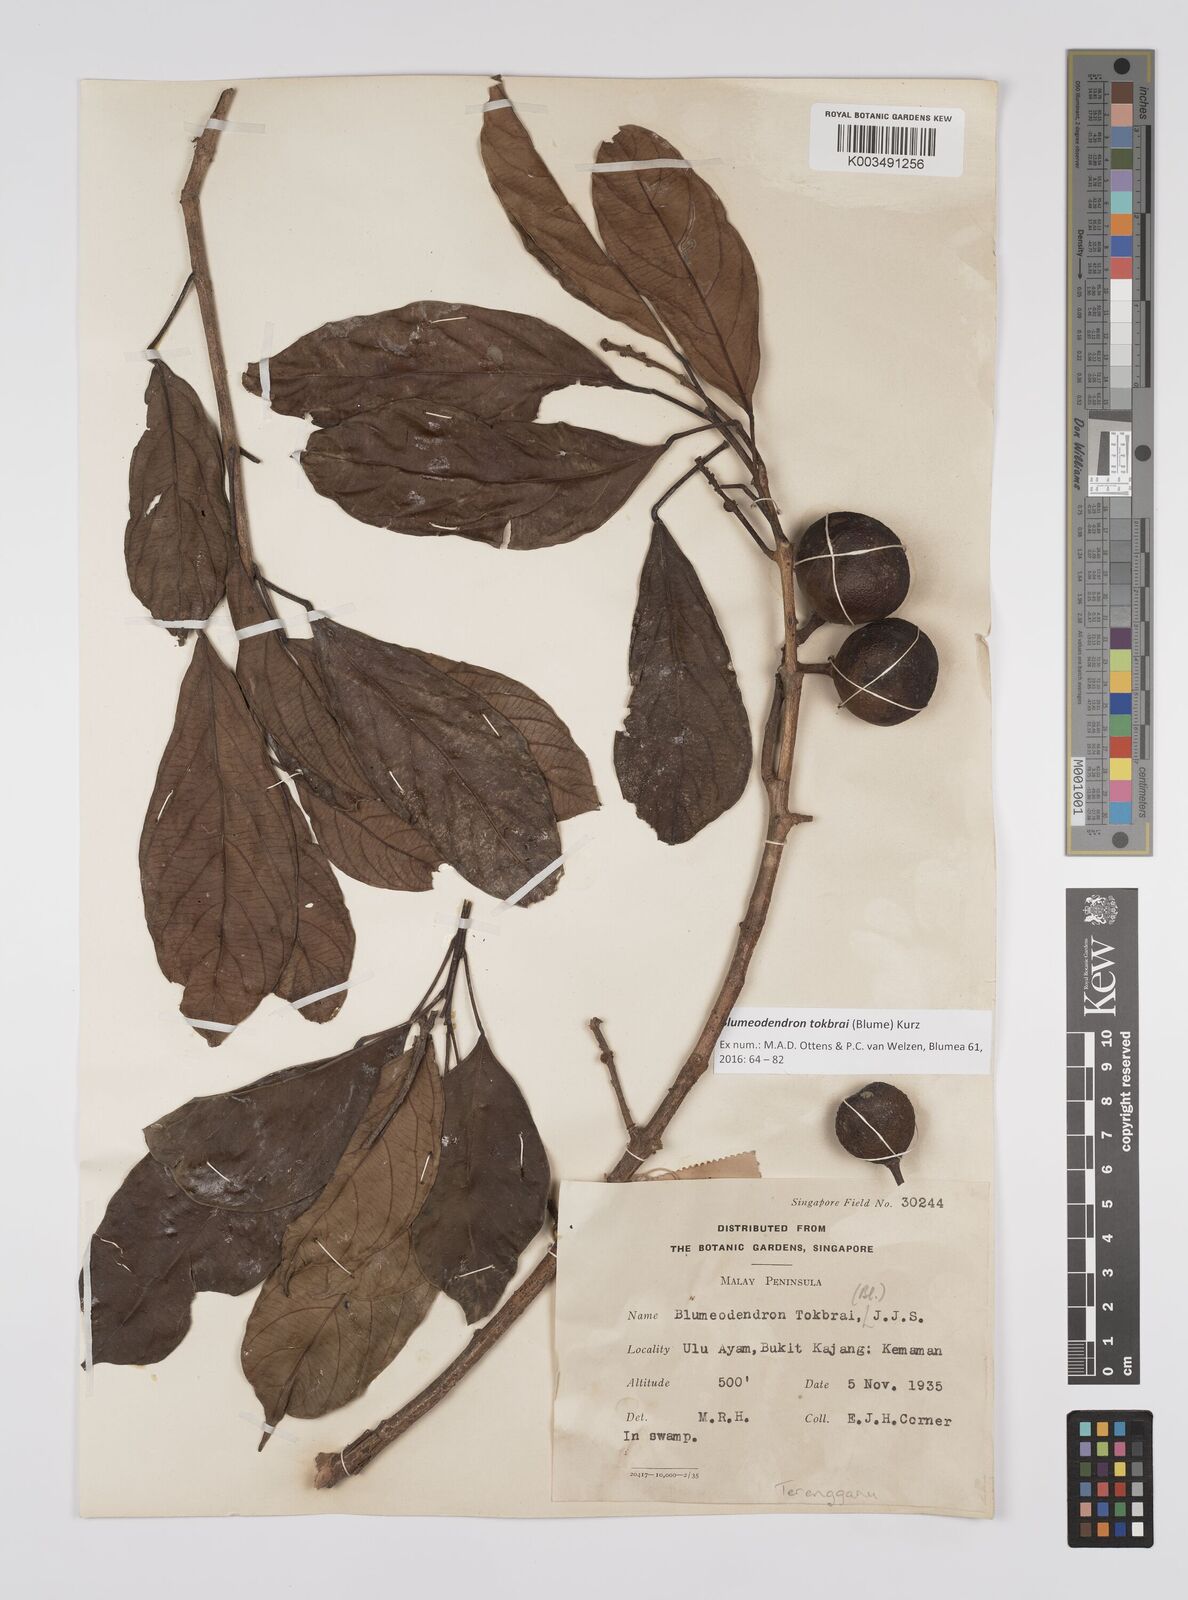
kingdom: Plantae
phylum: Tracheophyta
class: Magnoliopsida
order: Malpighiales
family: Euphorbiaceae
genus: Blumeodendron
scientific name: Blumeodendron tokbrai
